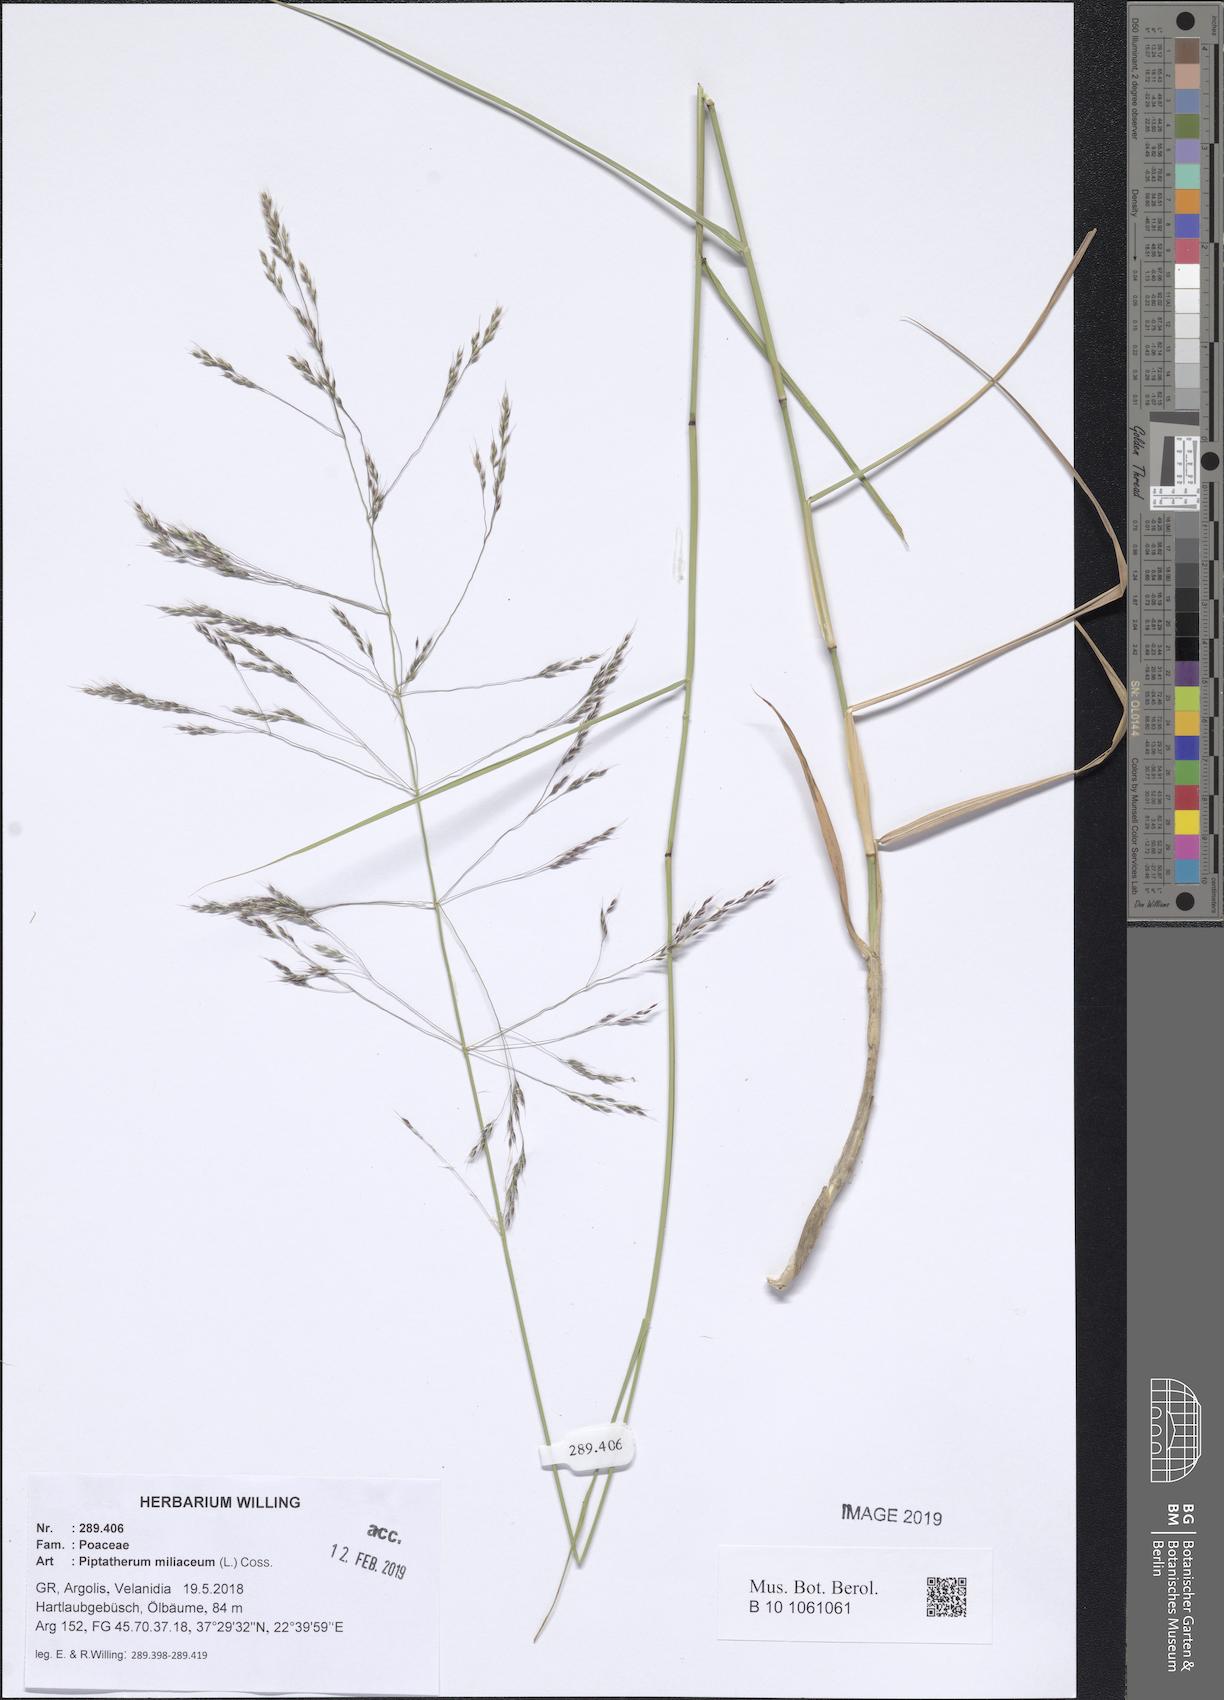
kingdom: Plantae
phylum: Tracheophyta
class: Liliopsida
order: Poales
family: Poaceae
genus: Oloptum
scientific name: Oloptum miliaceum
